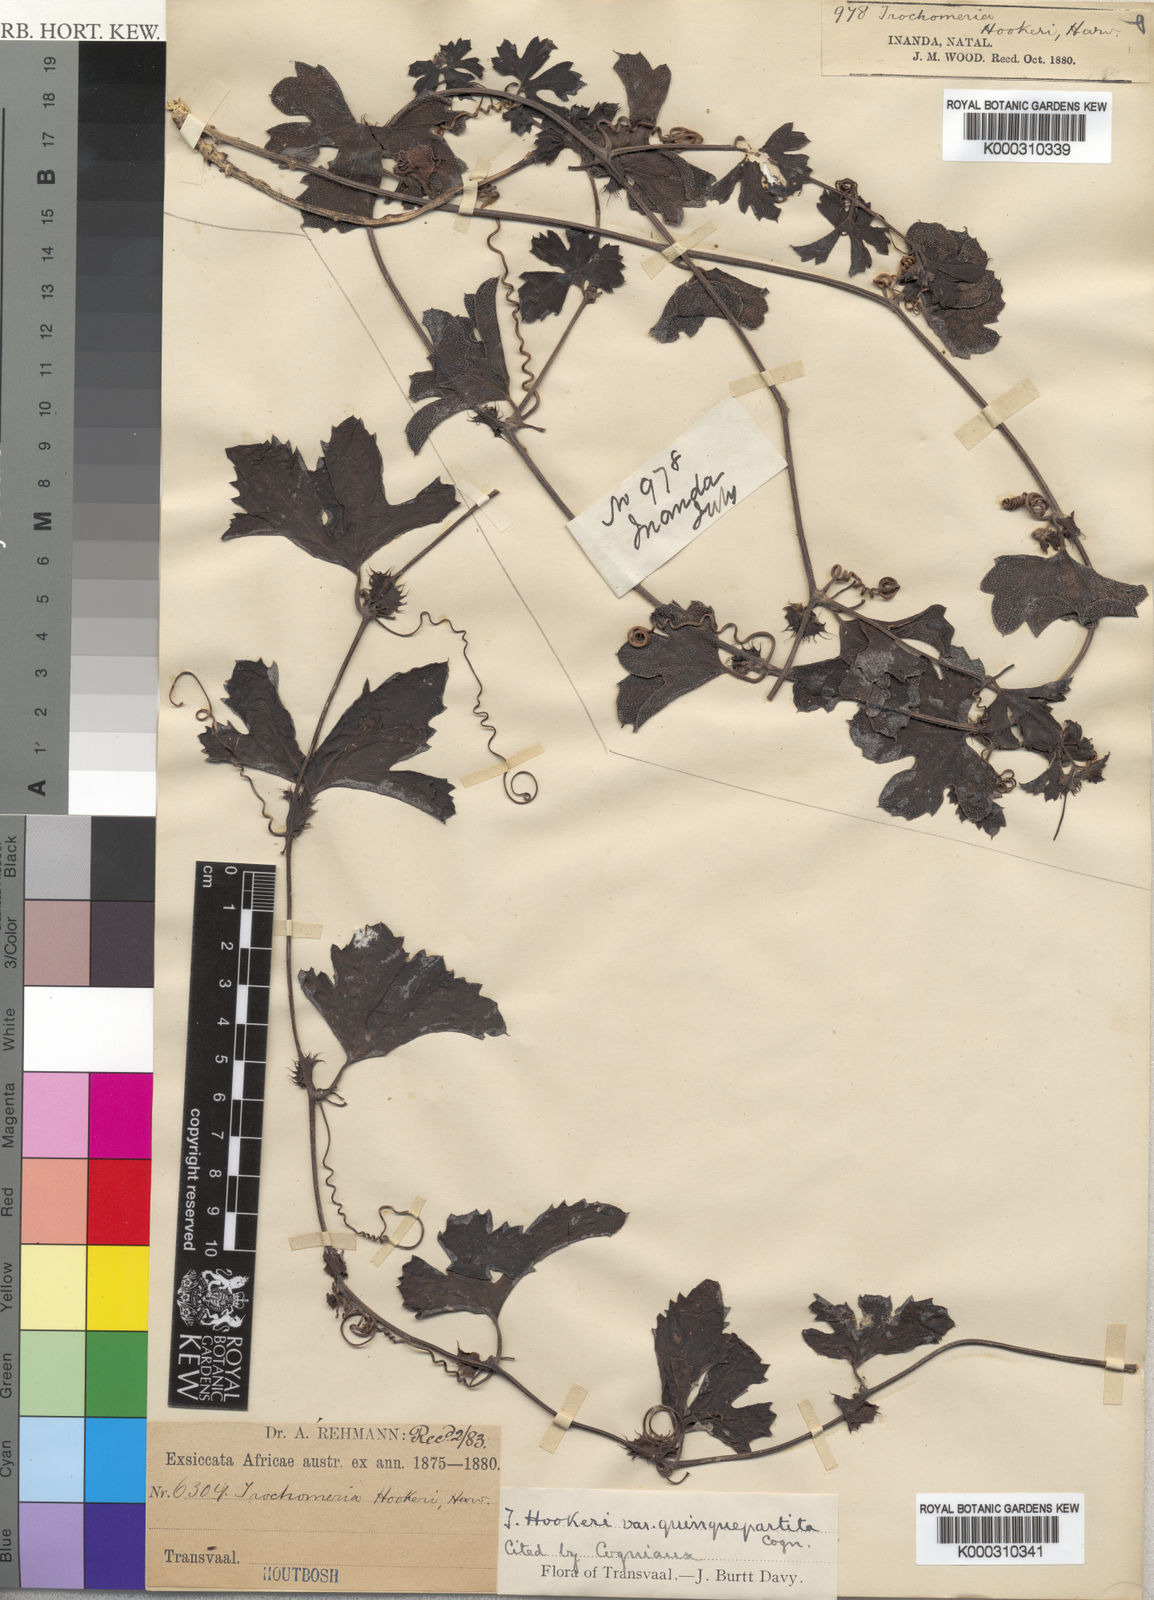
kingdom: Plantae
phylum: Tracheophyta
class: Magnoliopsida
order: Cucurbitales
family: Cucurbitaceae
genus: Trochomeria
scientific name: Trochomeria hookeri
